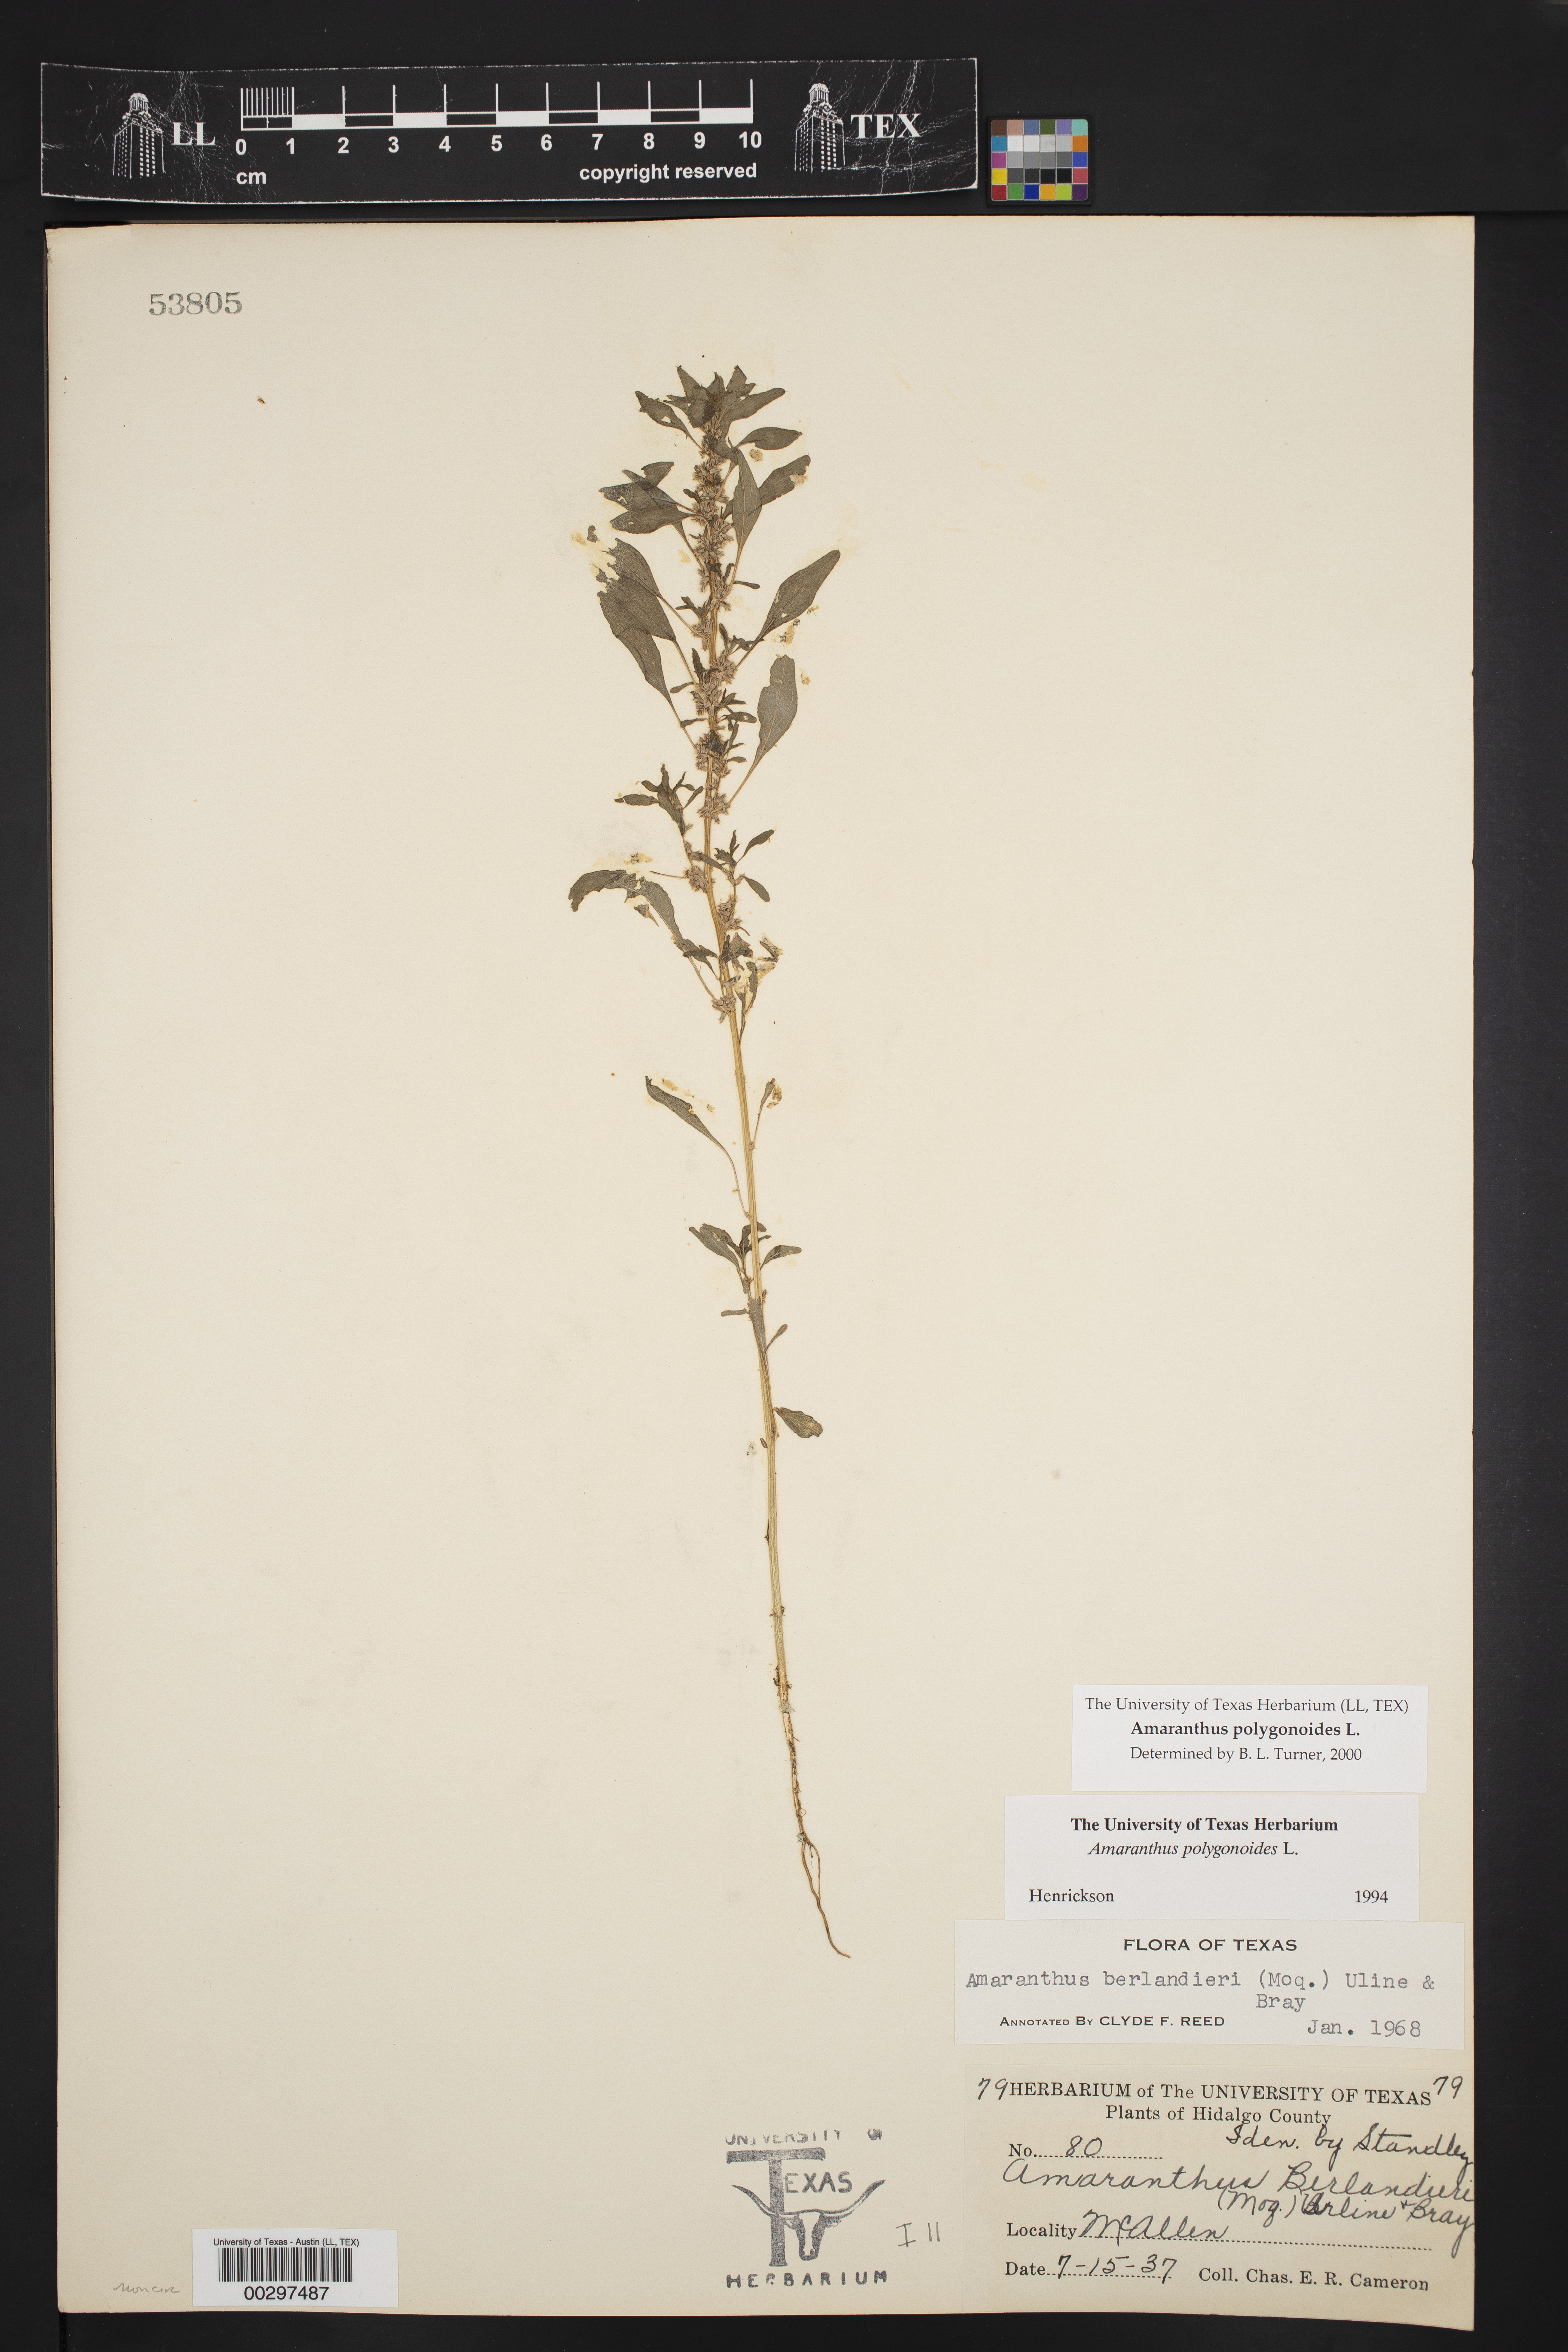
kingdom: Plantae
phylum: Tracheophyta
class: Magnoliopsida
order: Caryophyllales
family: Amaranthaceae
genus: Amaranthus
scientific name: Amaranthus polygonoides
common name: Tropical amaranth
